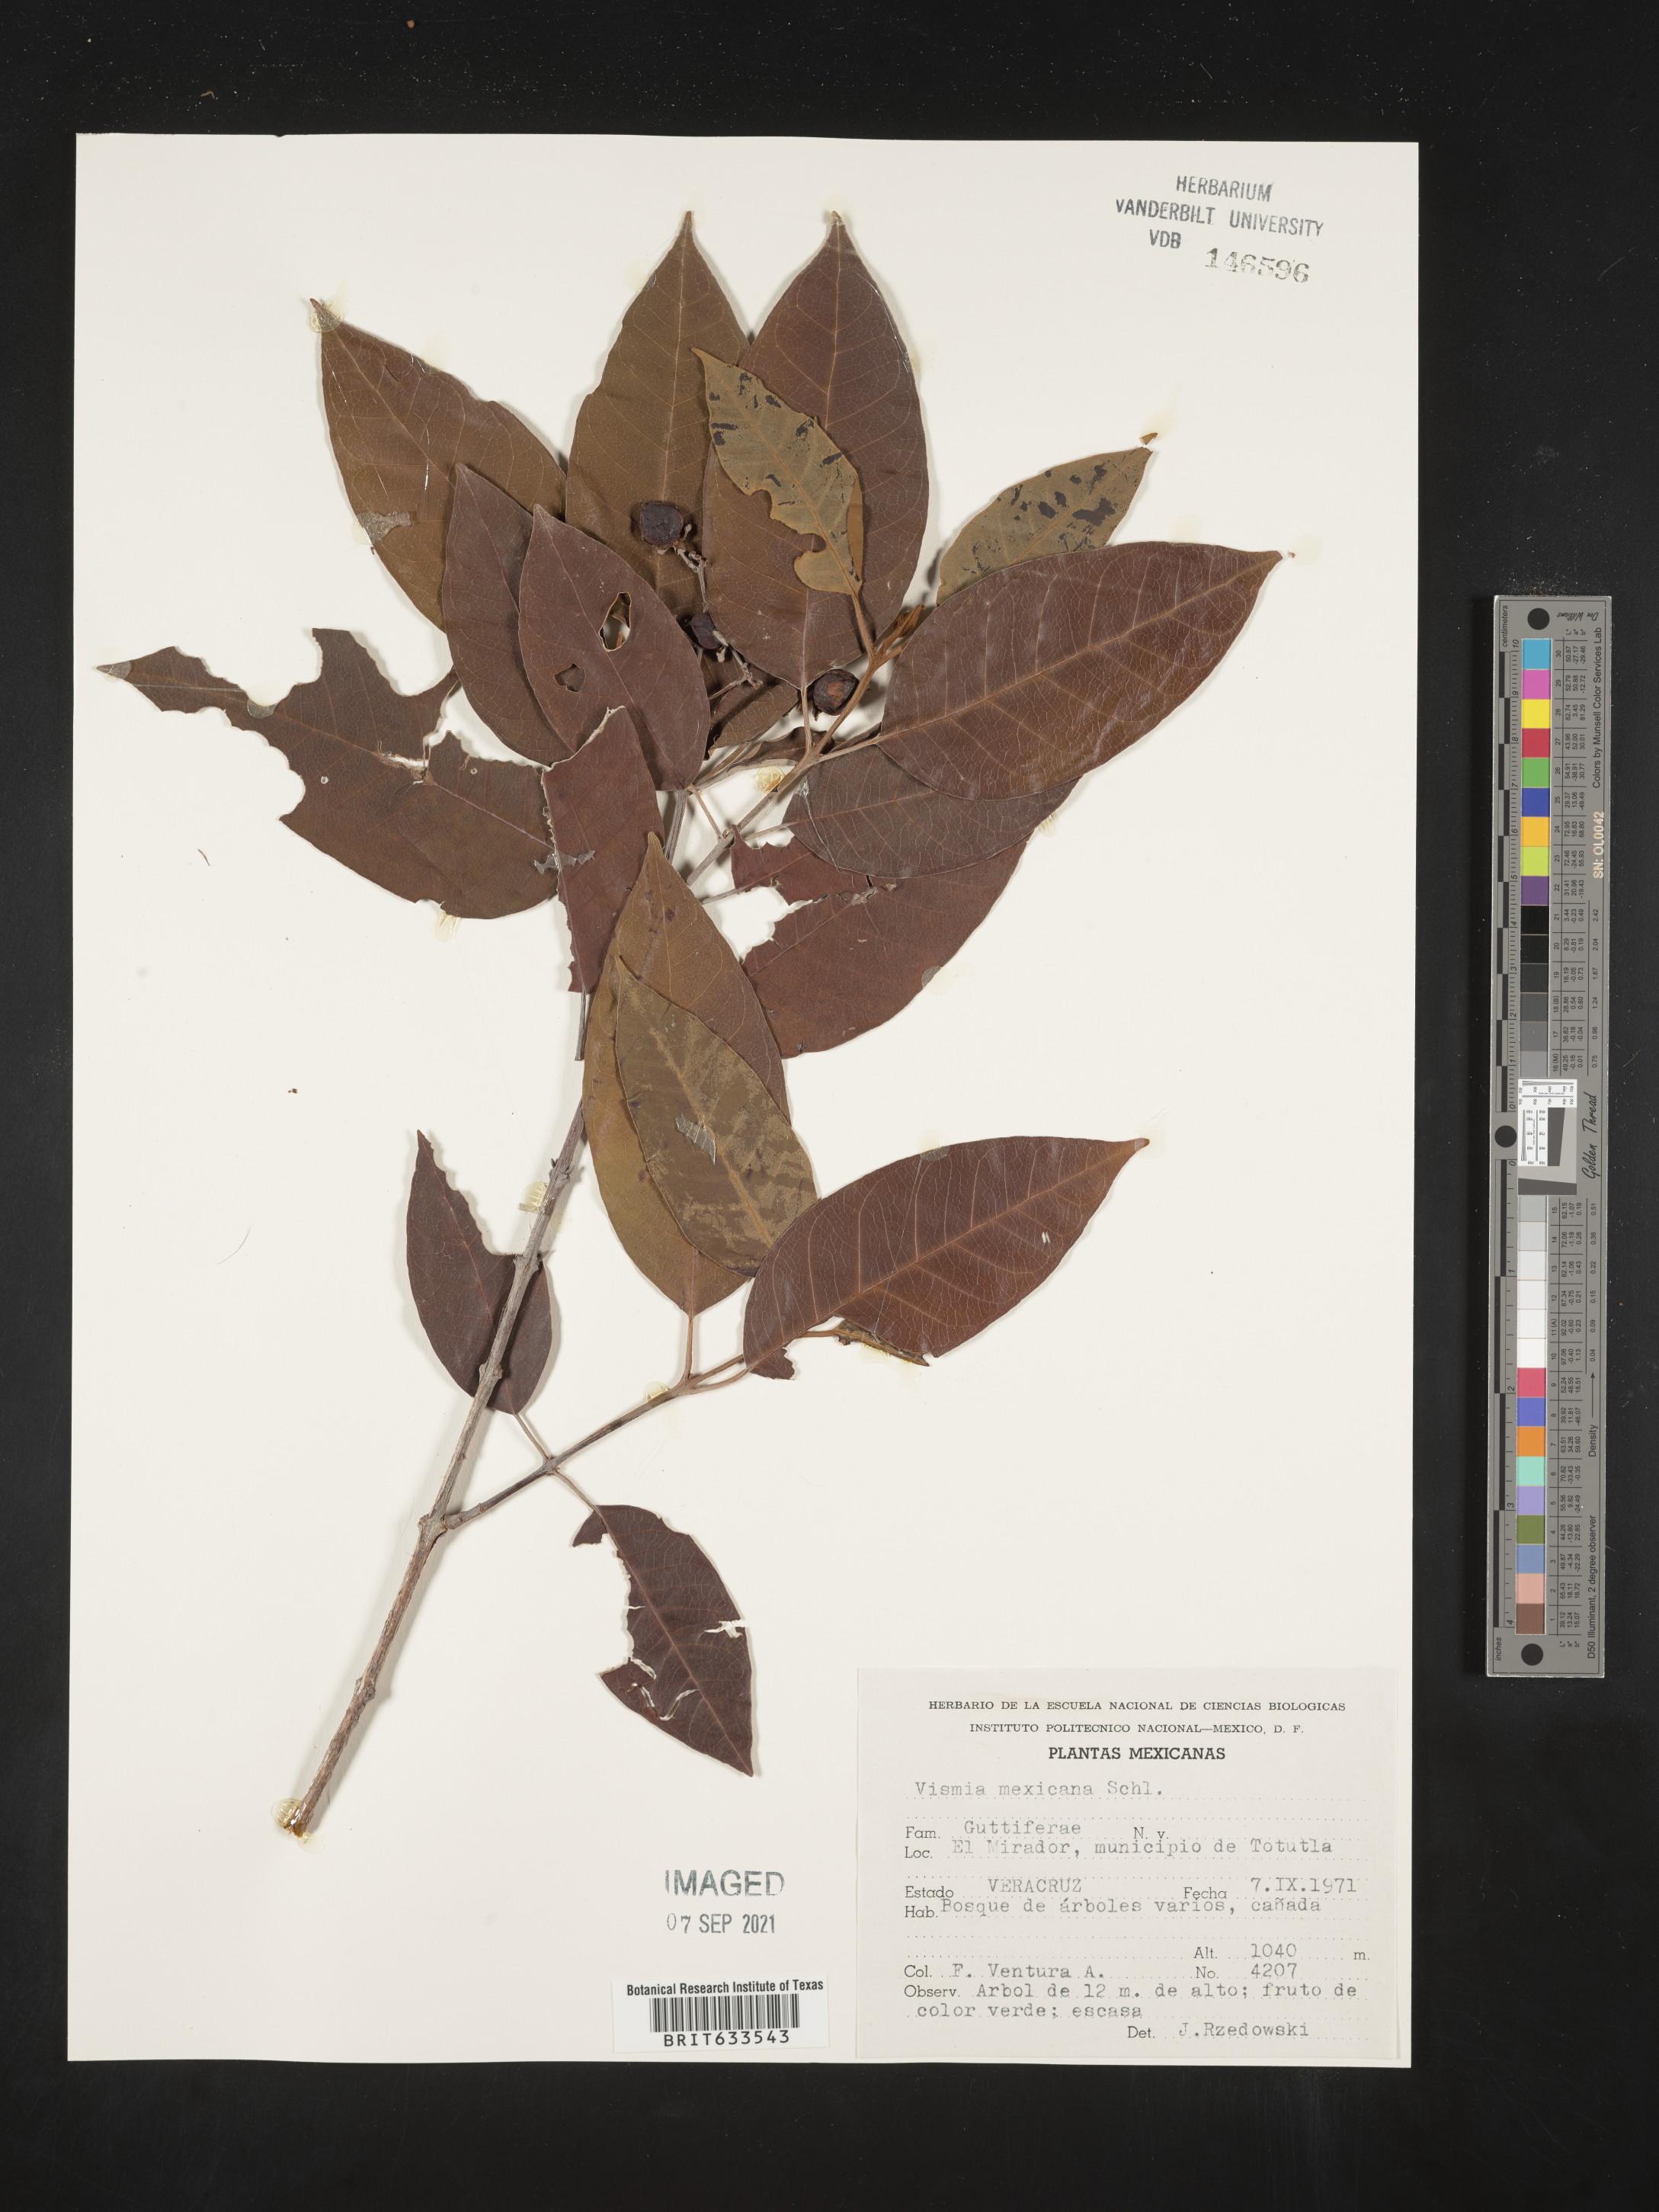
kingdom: Plantae
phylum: Tracheophyta
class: Magnoliopsida
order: Malpighiales
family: Hypericaceae
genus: Vismia
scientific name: Vismia
